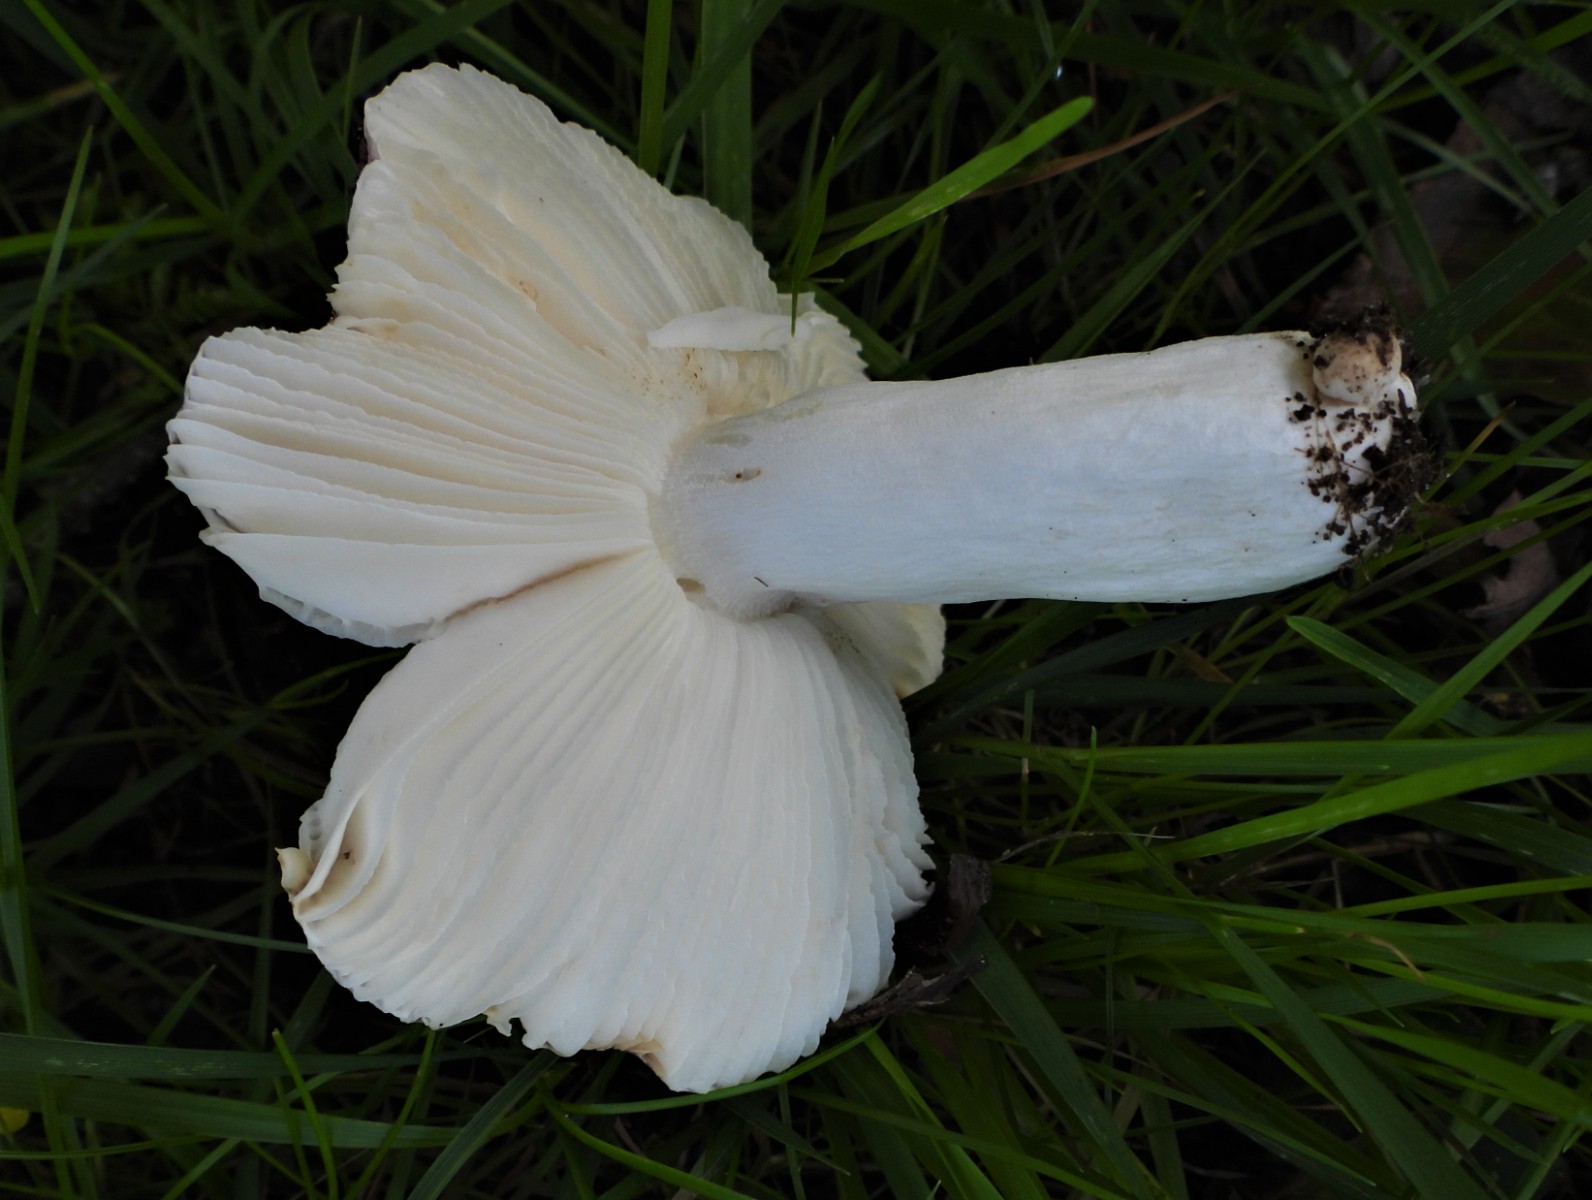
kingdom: Fungi
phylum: Basidiomycota
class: Agaricomycetes
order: Russulales
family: Russulaceae
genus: Russula
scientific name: Russula atropurpurea
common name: purpurbroget skørhat
